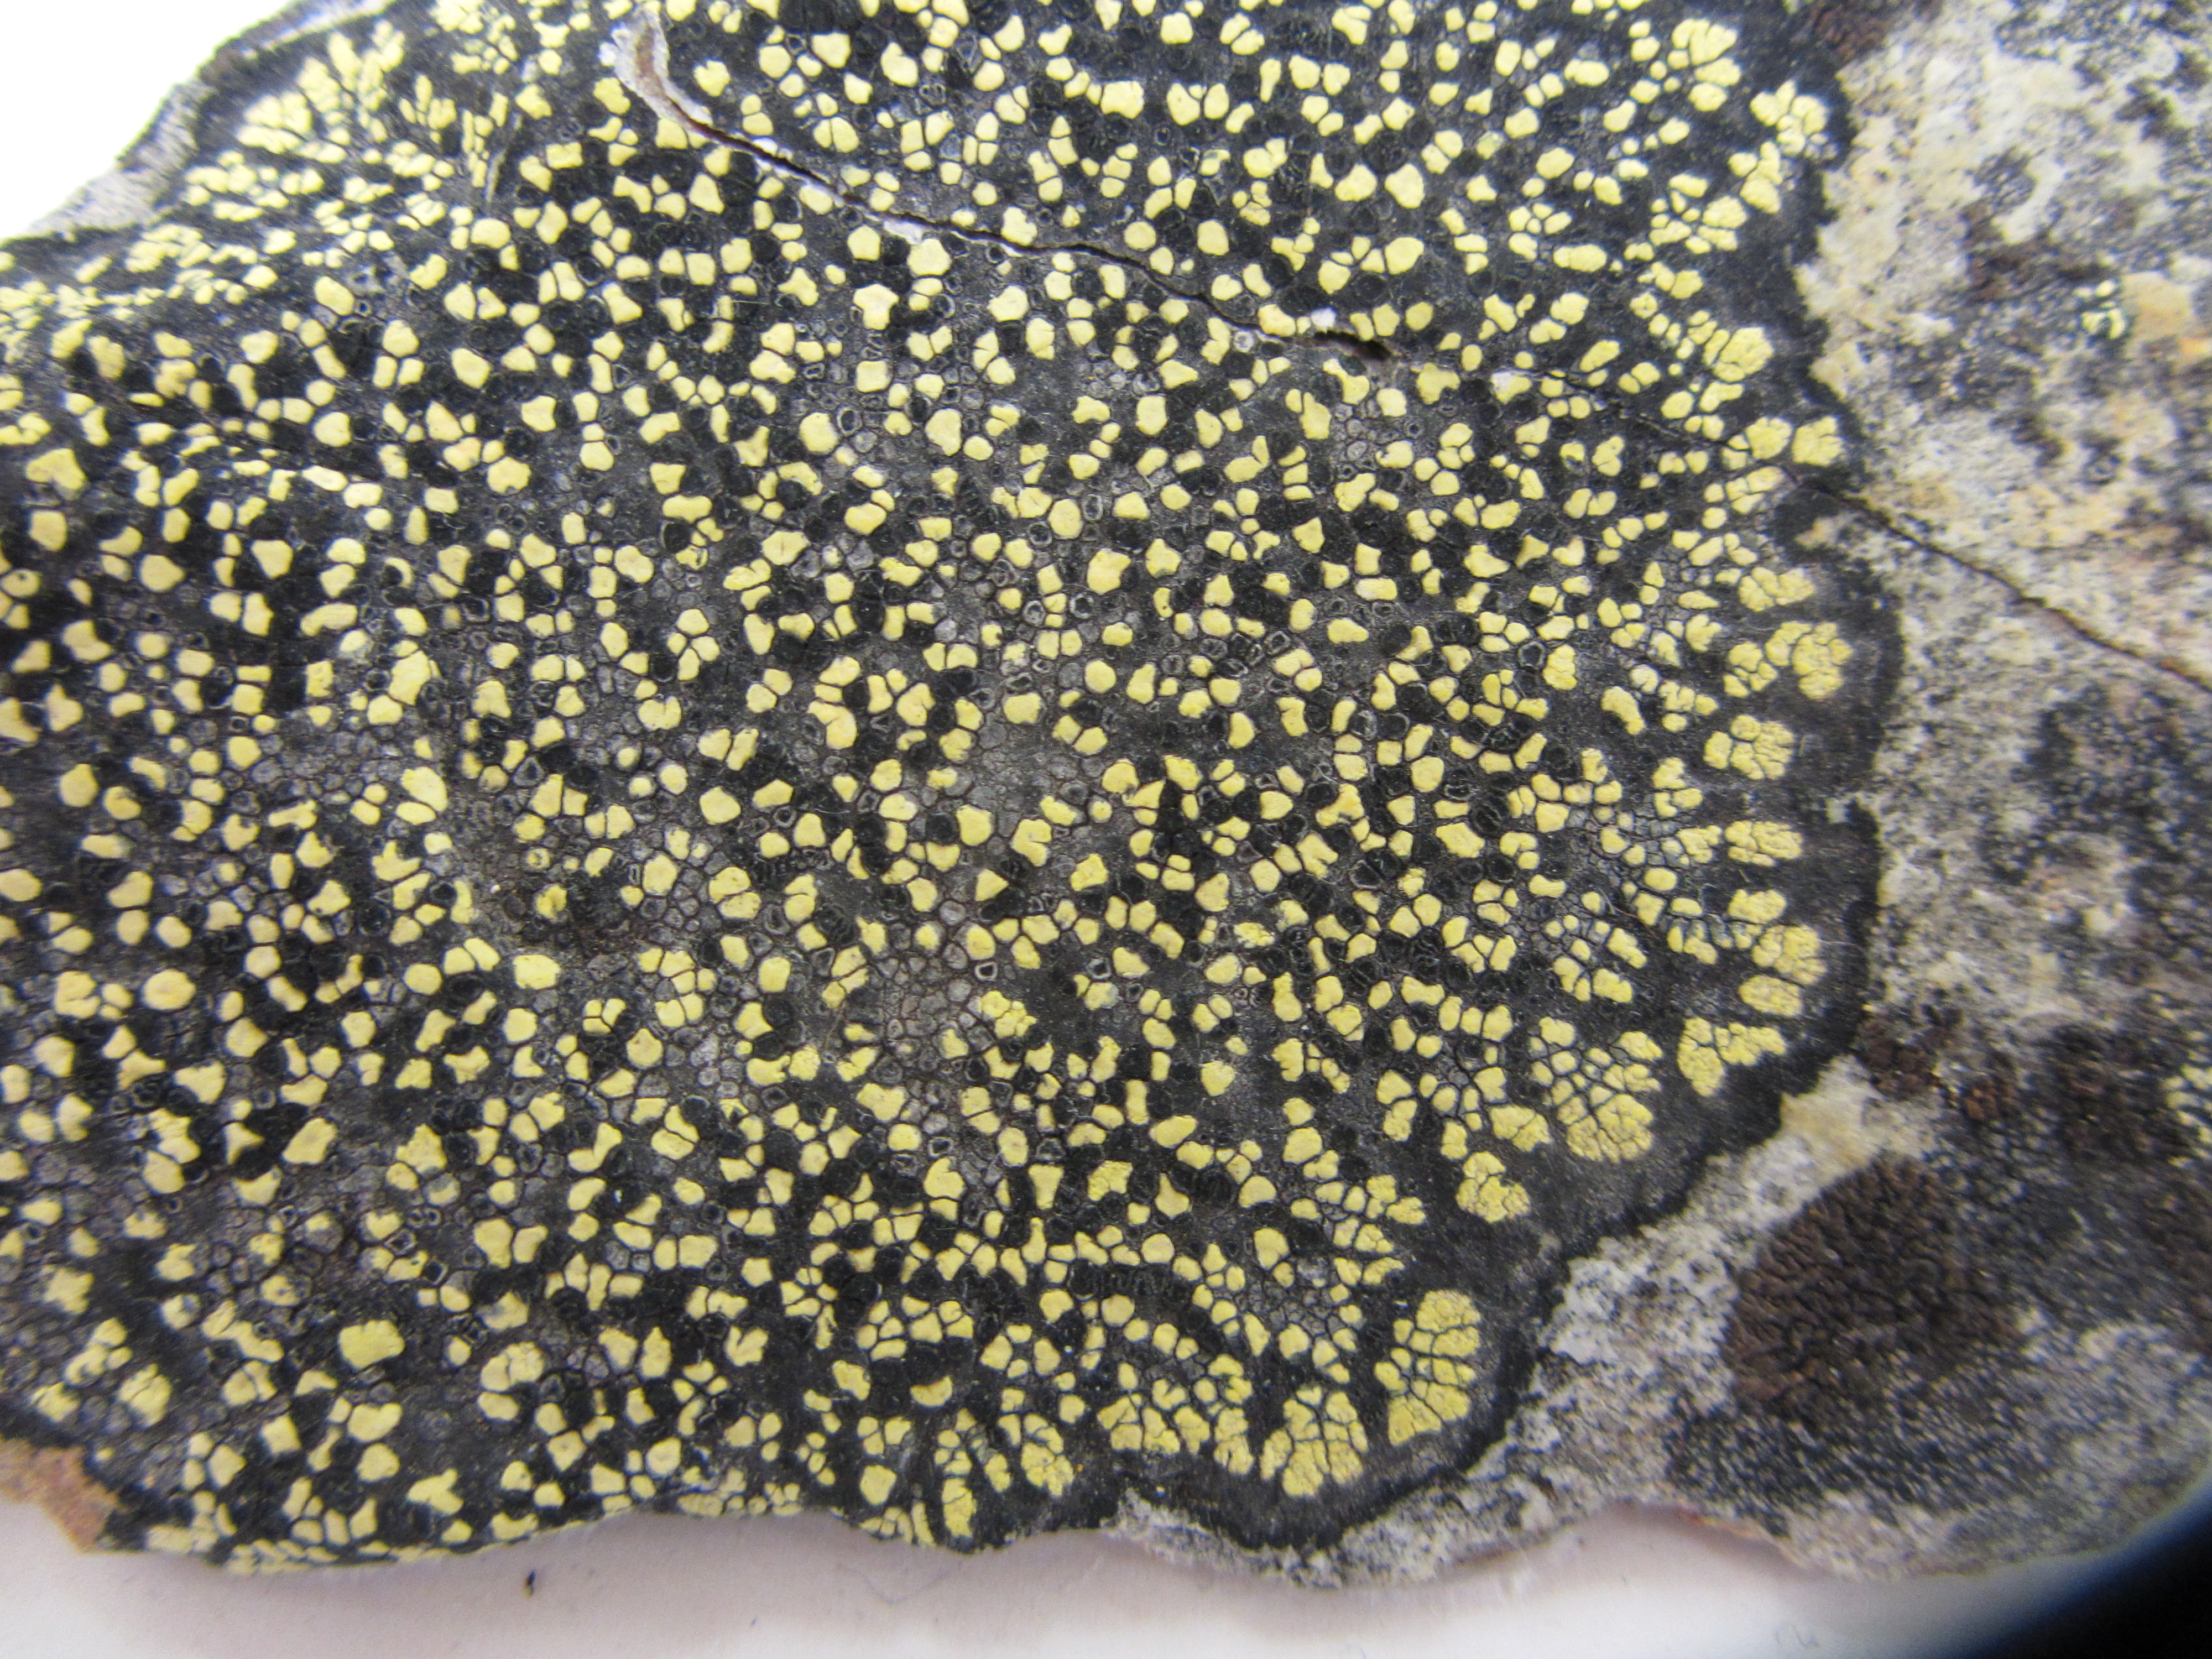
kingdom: Fungi
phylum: Ascomycota
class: Lecanoromycetes
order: Rhizocarpales
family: Rhizocarpaceae
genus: Rhizocarpon
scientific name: Rhizocarpon geographicum
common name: Yellow map lichen
